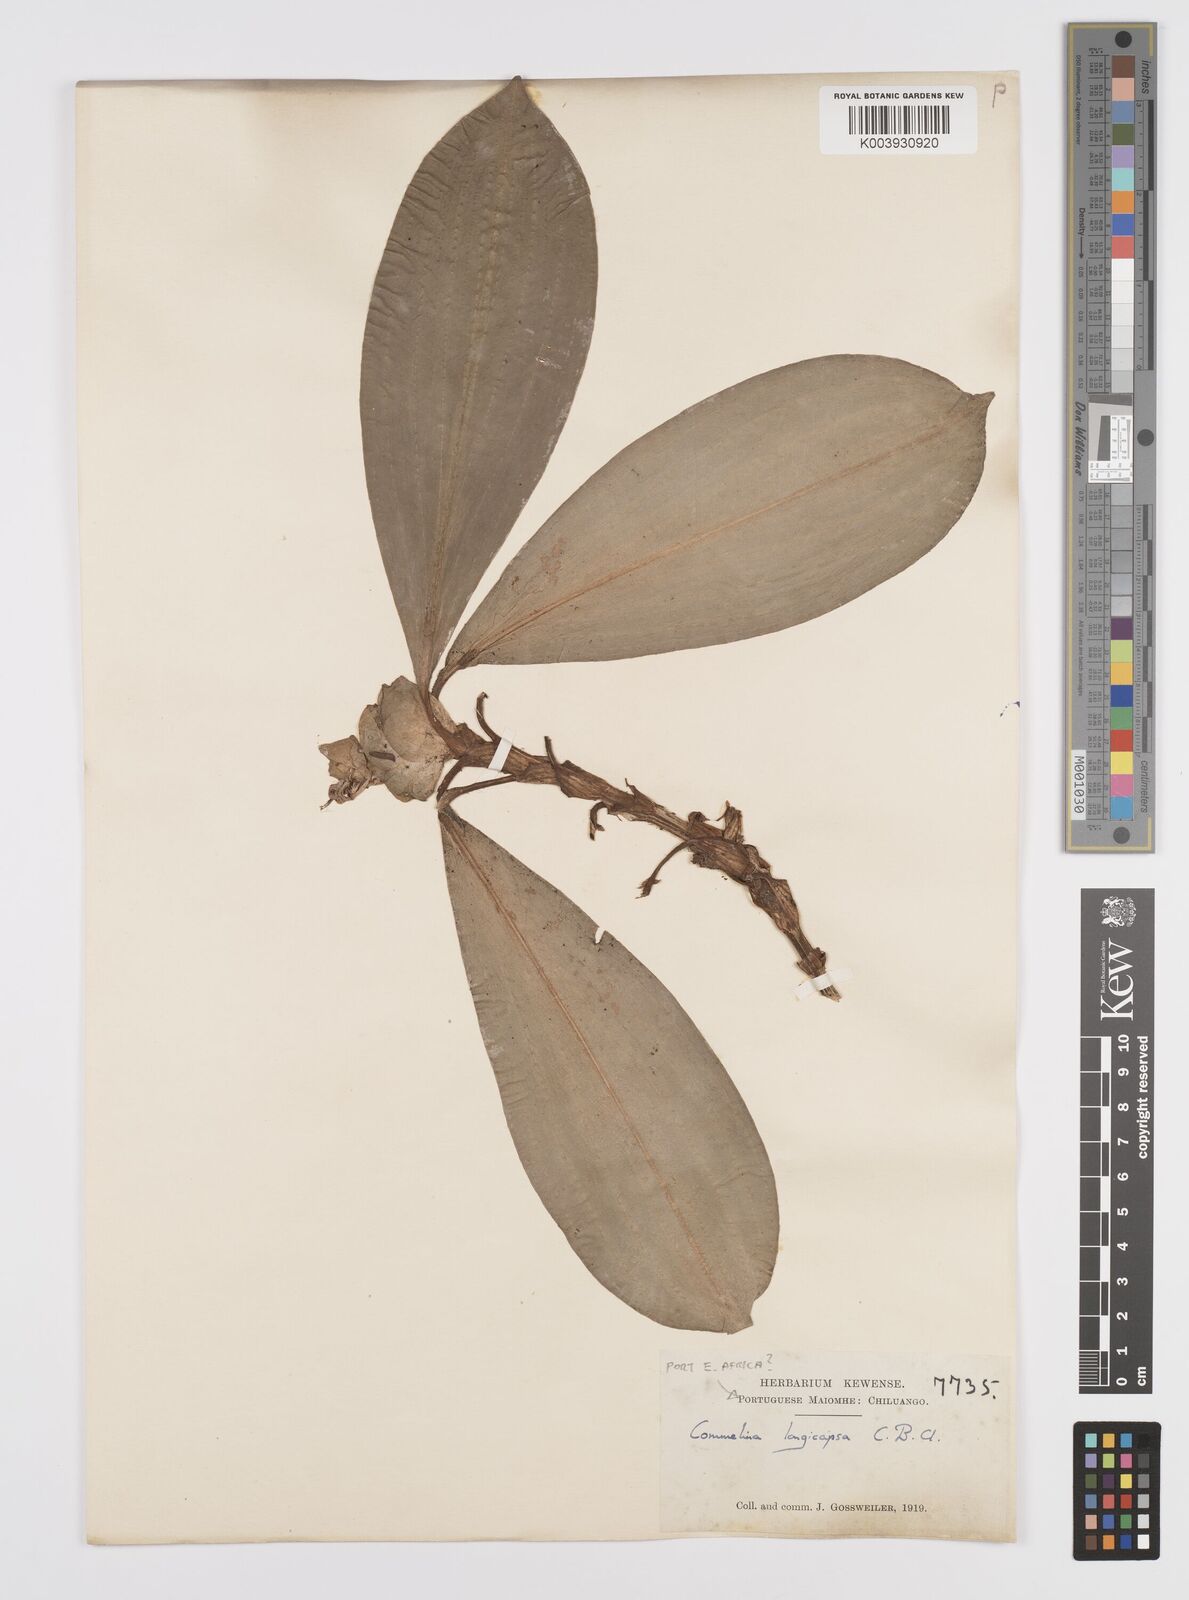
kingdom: Plantae
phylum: Tracheophyta
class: Liliopsida
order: Commelinales
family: Commelinaceae
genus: Commelina
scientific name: Commelina longicapsa
